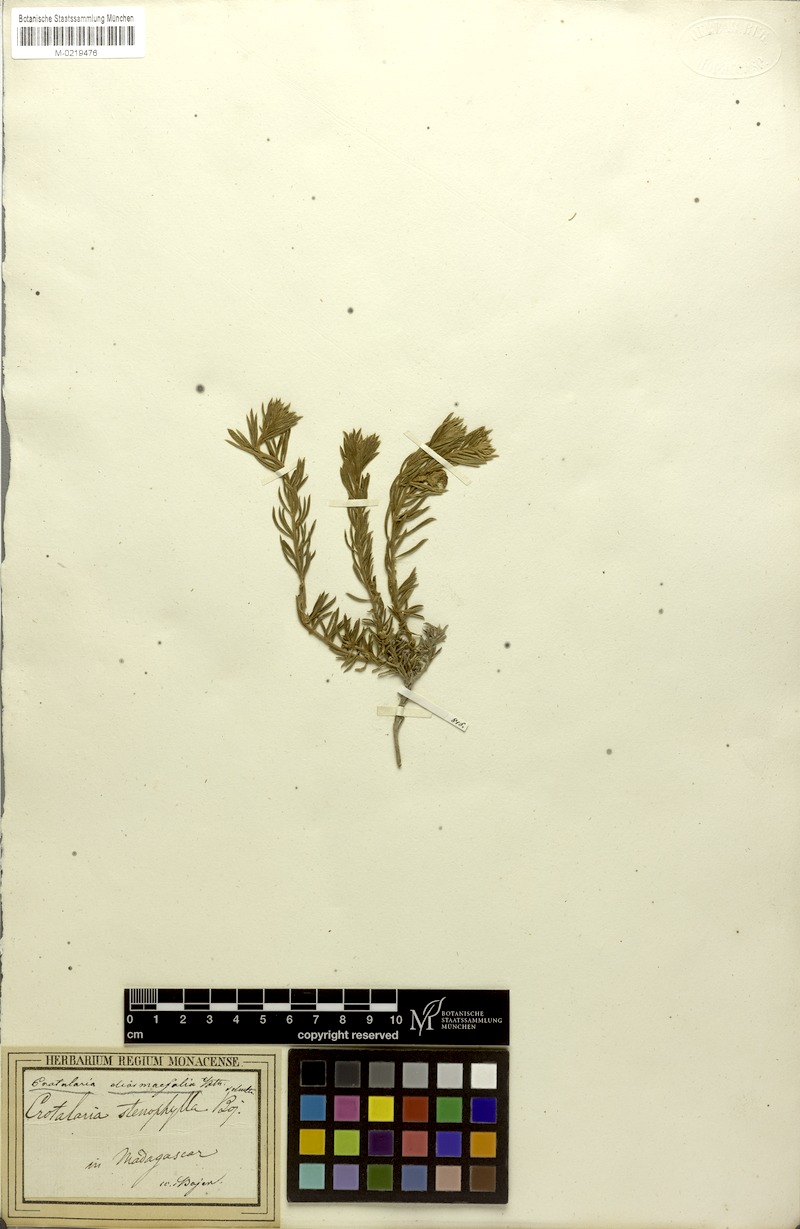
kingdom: Plantae
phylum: Tracheophyta
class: Magnoliopsida
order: Fabales
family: Fabaceae
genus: Crotalaria
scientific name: Crotalaria diosmifolia
